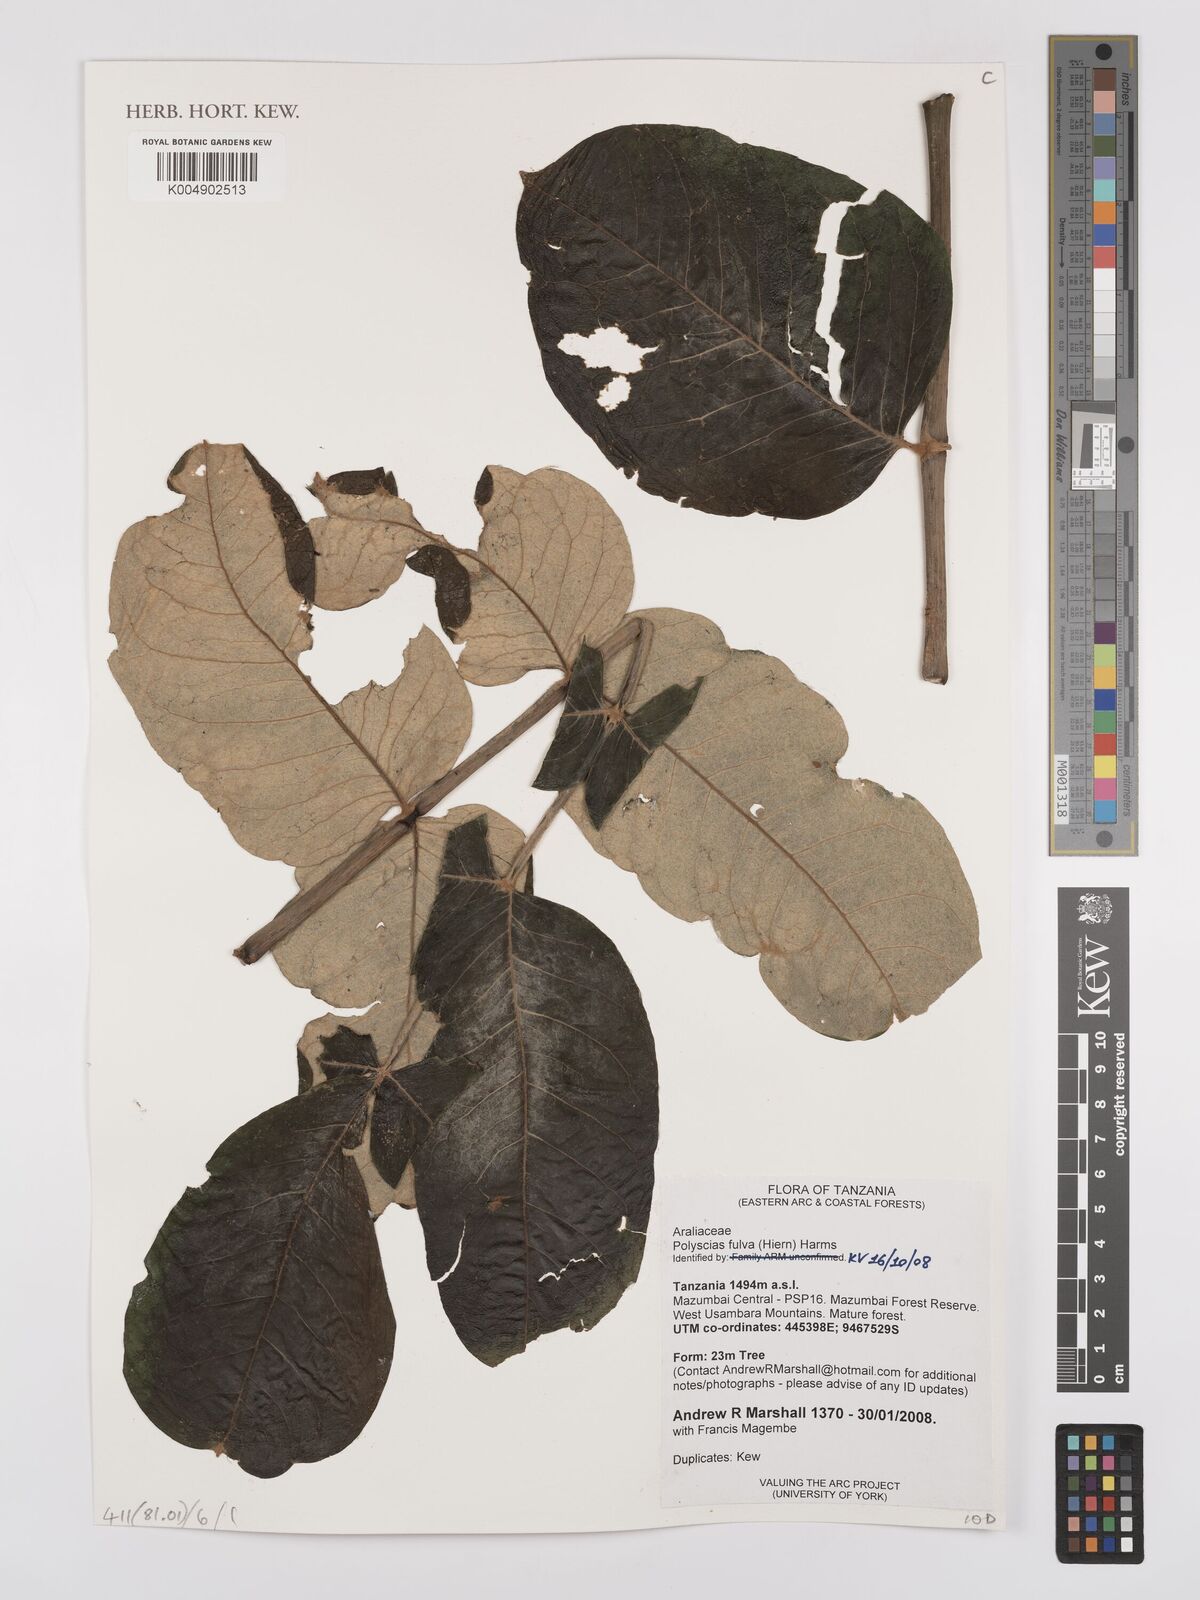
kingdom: Plantae
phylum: Tracheophyta
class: Magnoliopsida
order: Apiales
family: Araliaceae
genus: Polyscias
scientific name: Polyscias fulva
